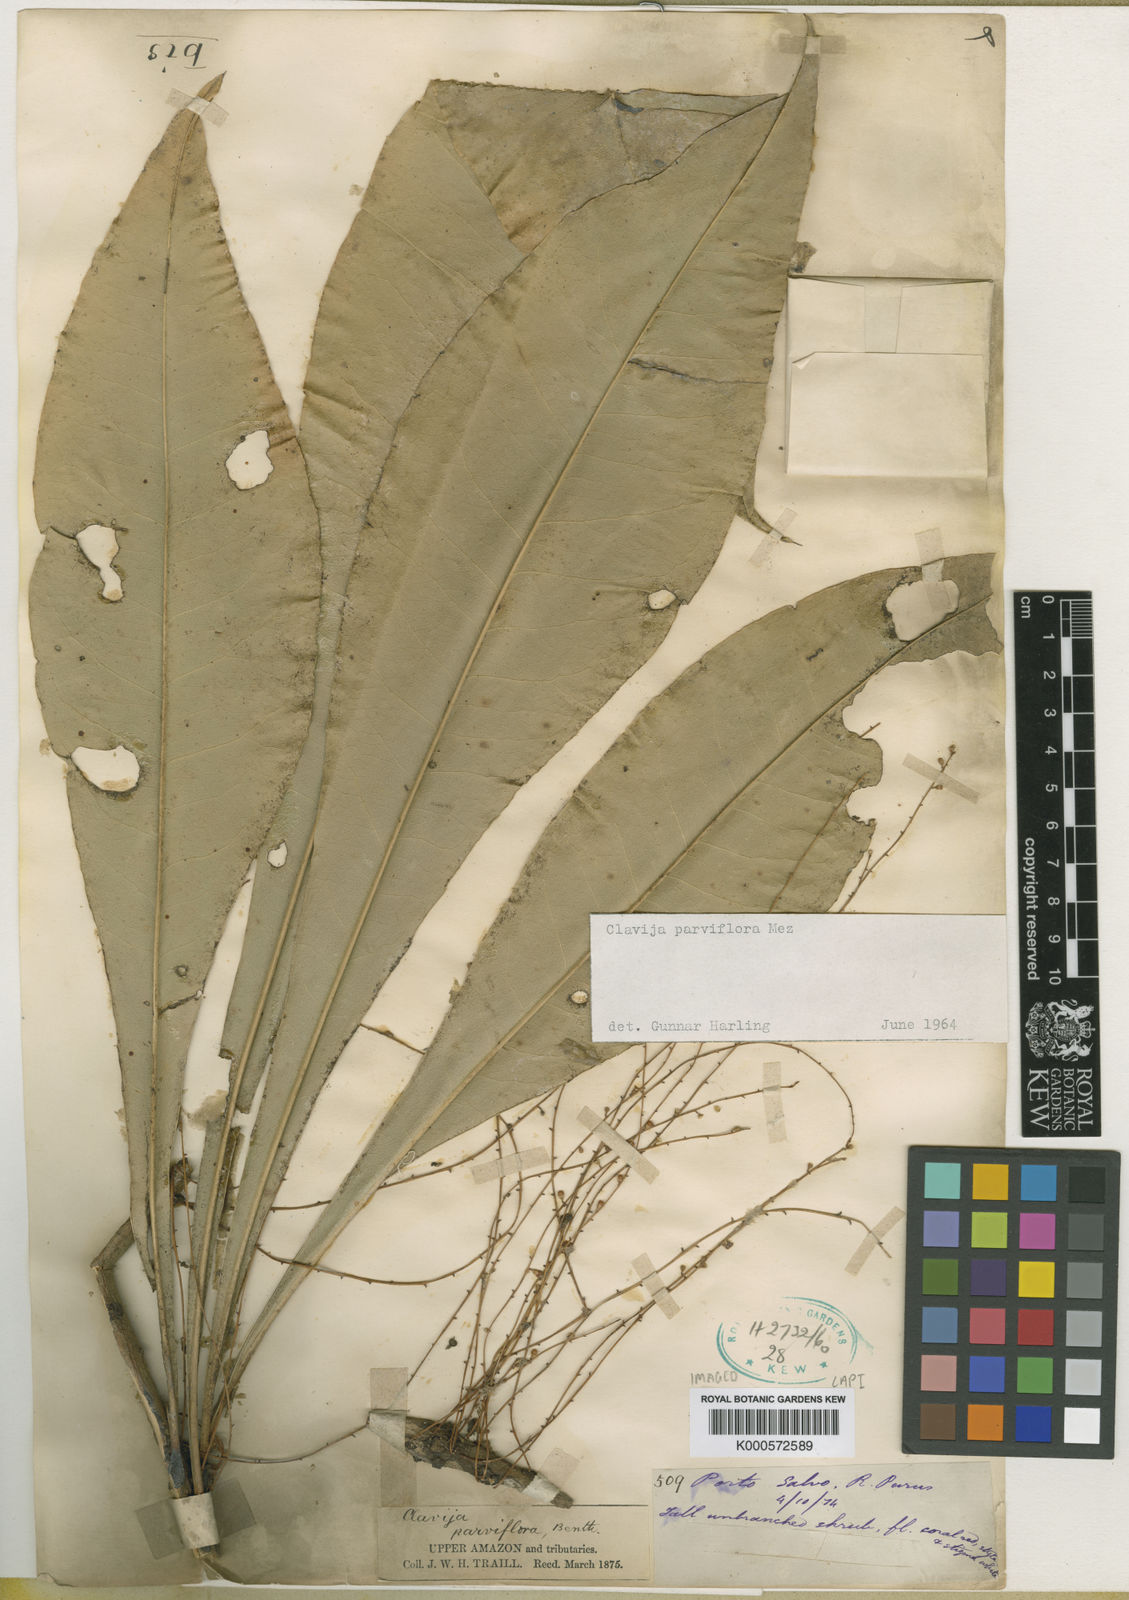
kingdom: Plantae
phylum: Tracheophyta
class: Magnoliopsida
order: Ericales
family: Primulaceae
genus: Clavija
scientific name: Clavija umbrosa
